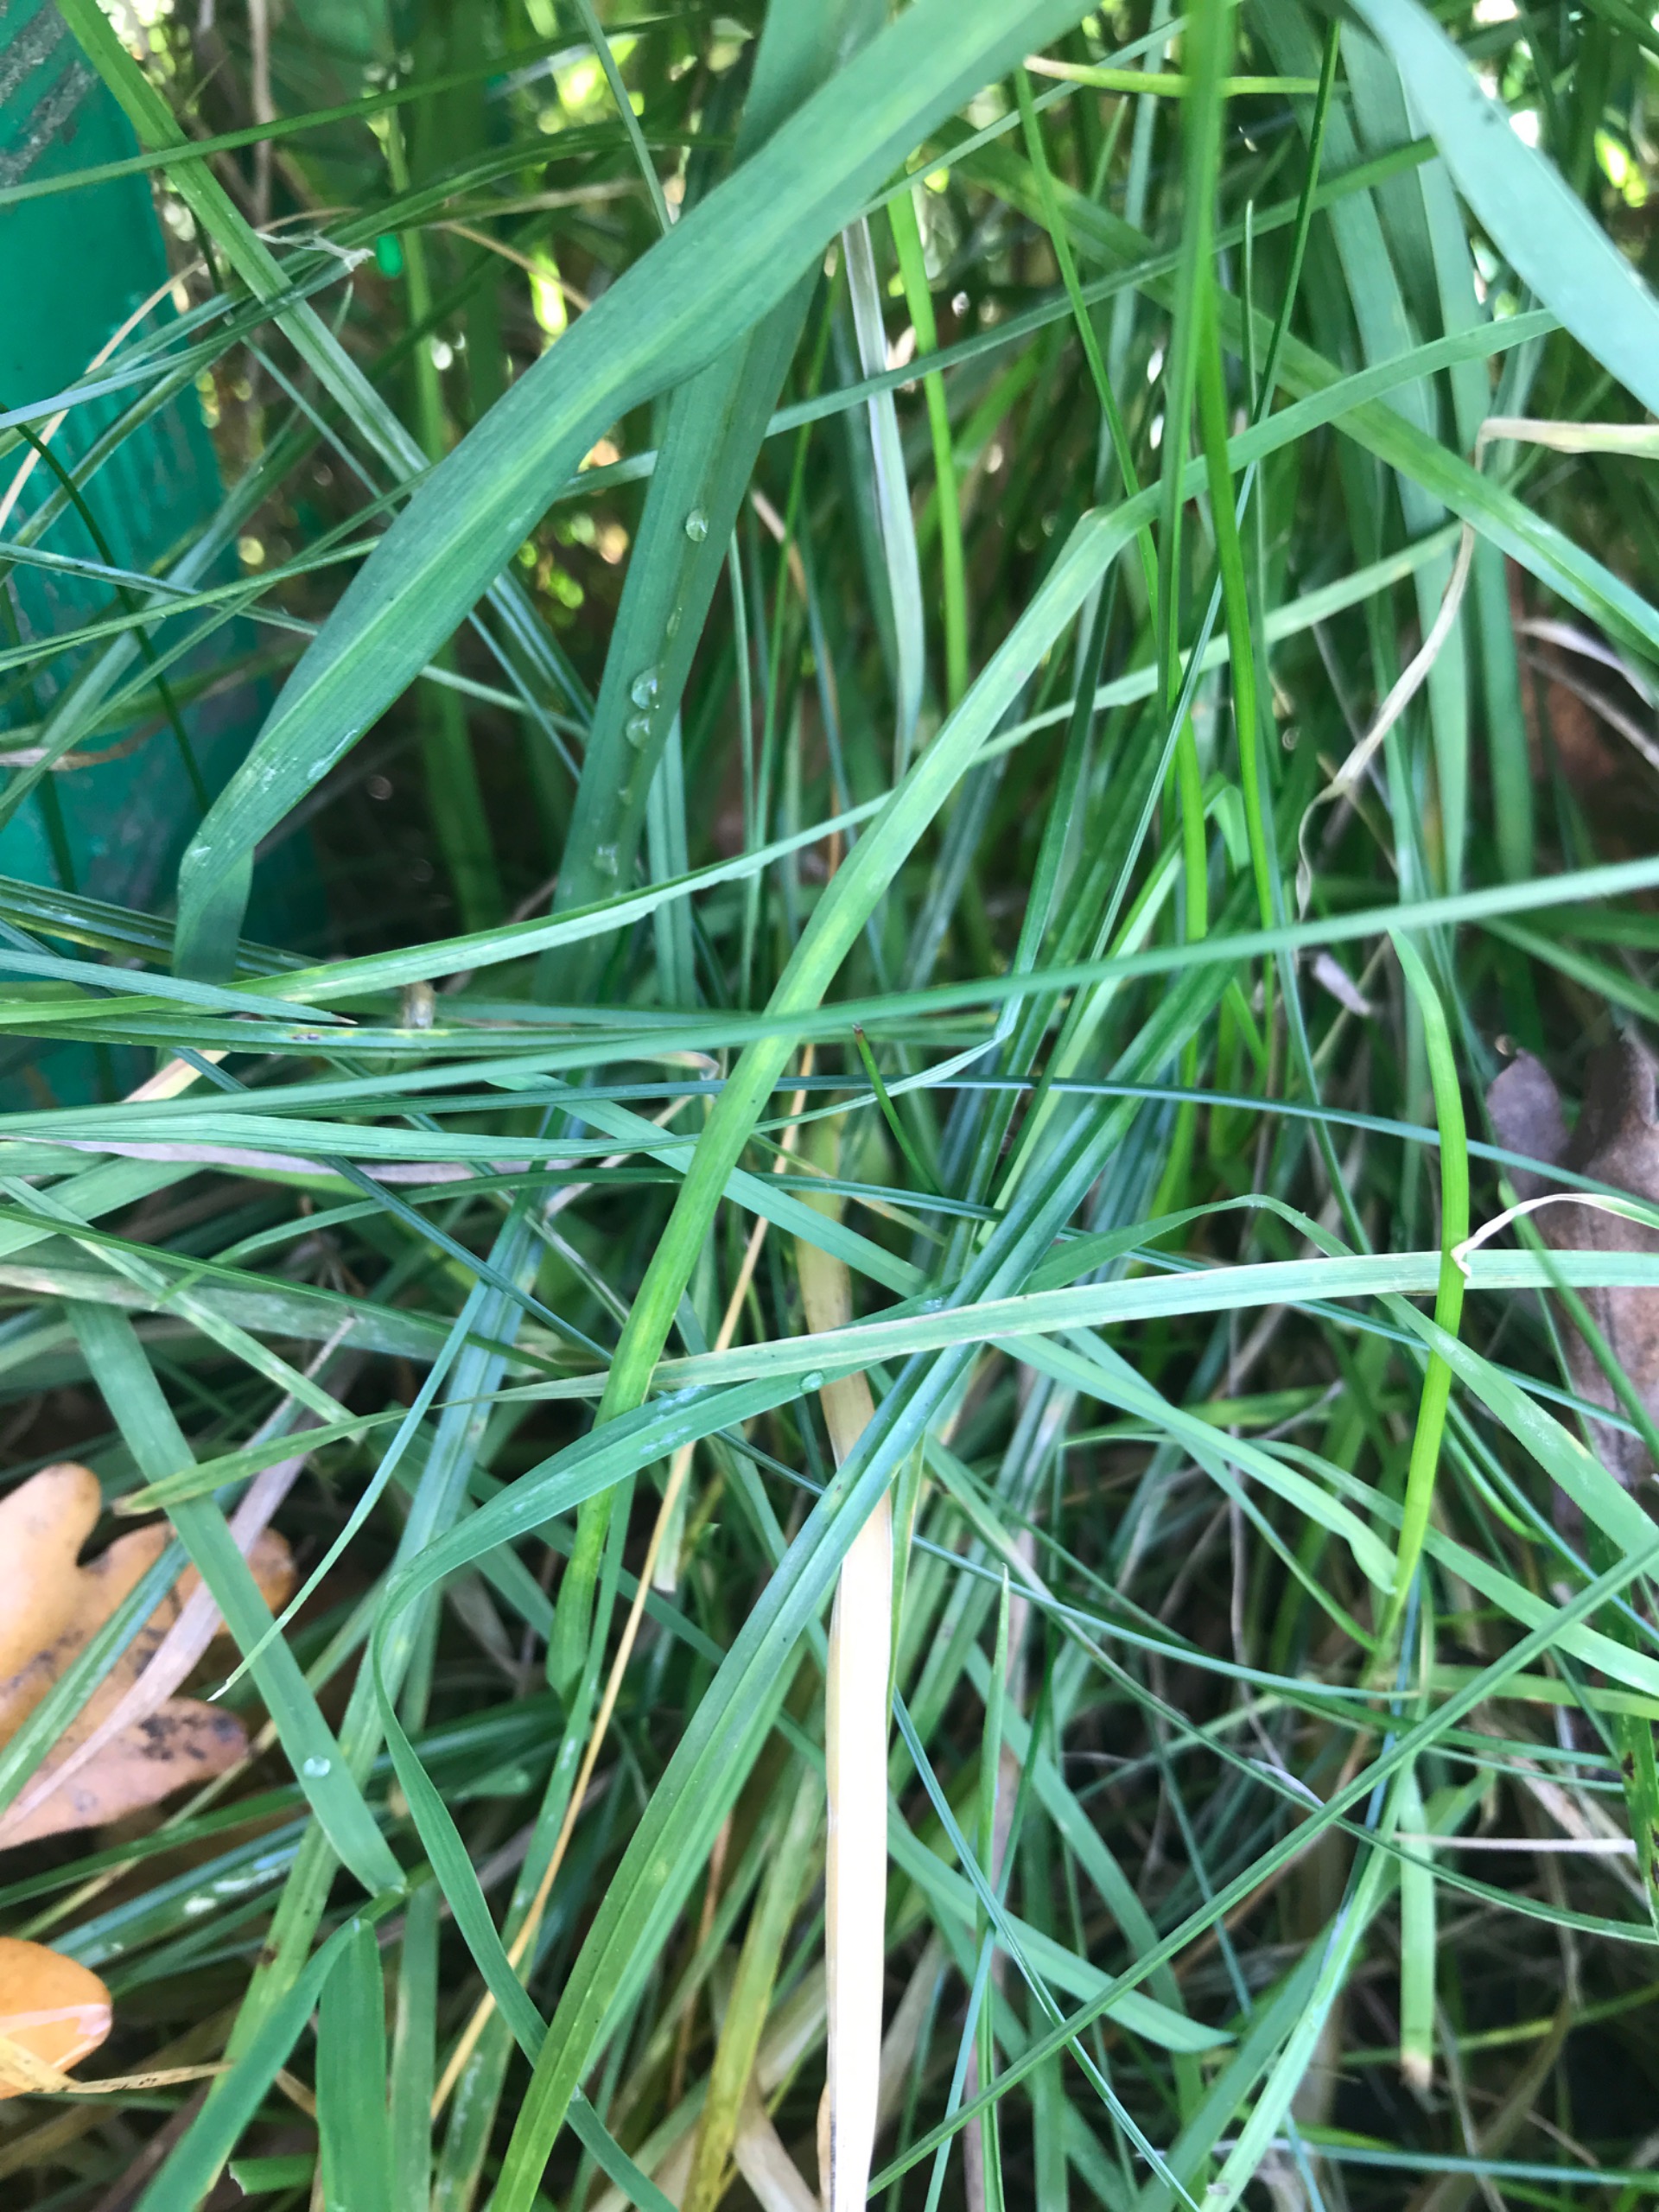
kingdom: Plantae
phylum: Tracheophyta
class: Liliopsida
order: Poales
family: Poaceae
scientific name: Poaceae
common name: Græsfamilien
